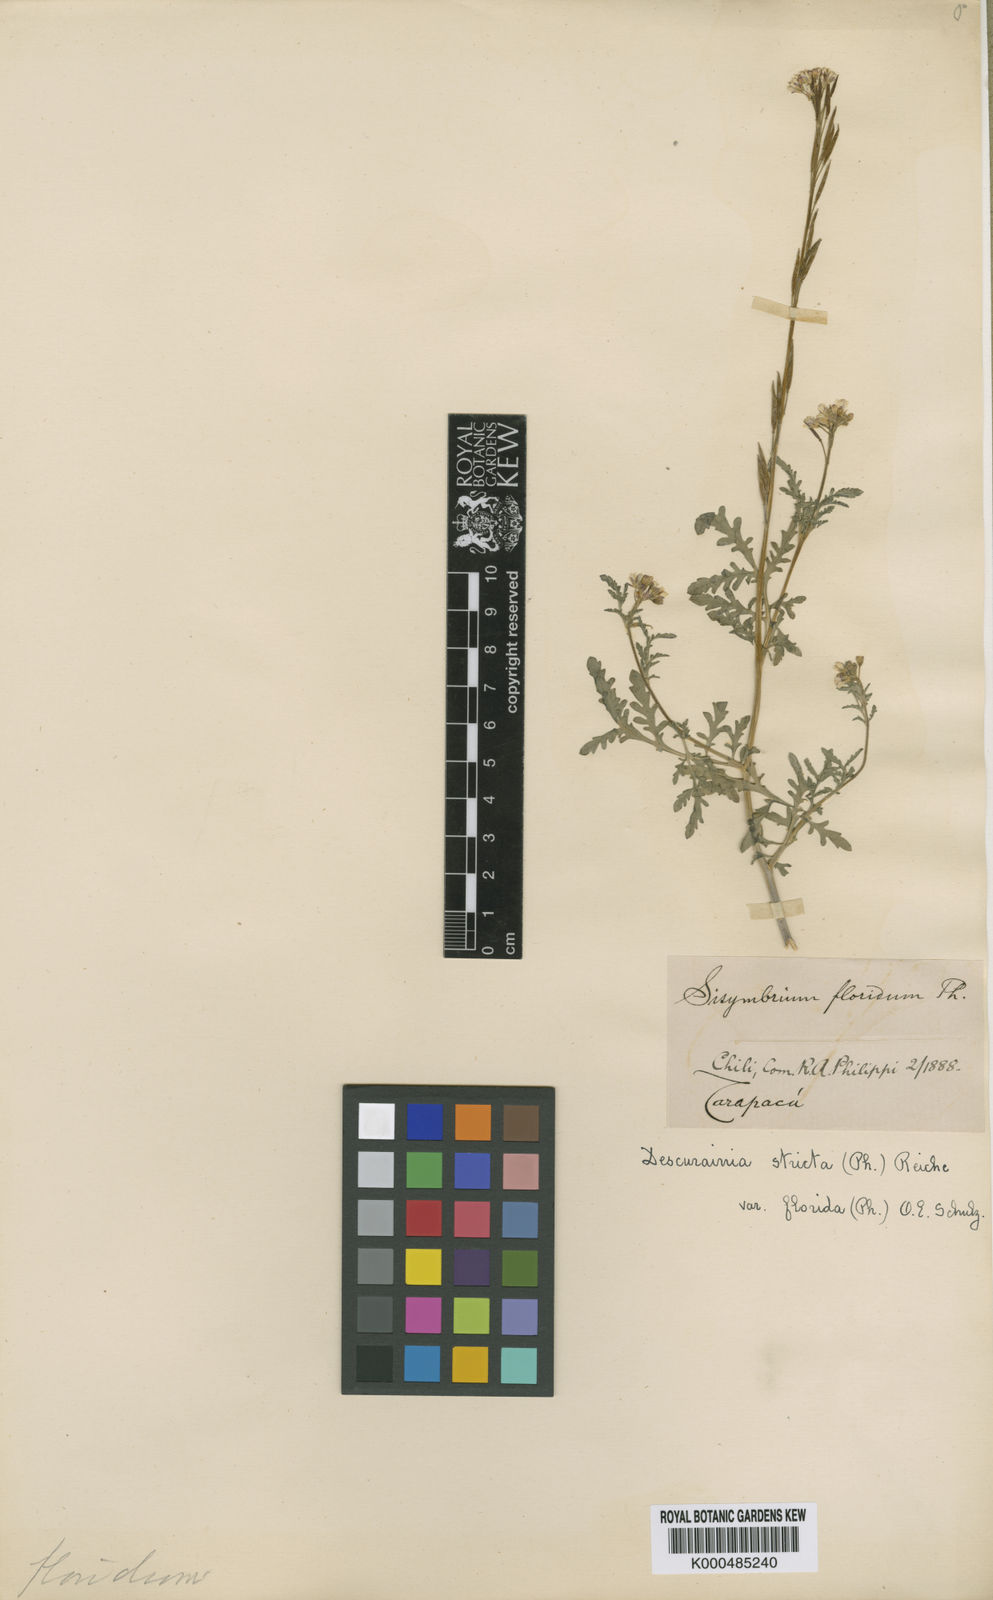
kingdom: Plantae
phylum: Tracheophyta
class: Magnoliopsida
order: Brassicales
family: Brassicaceae
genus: Descurainia
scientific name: Descurainia stricta
